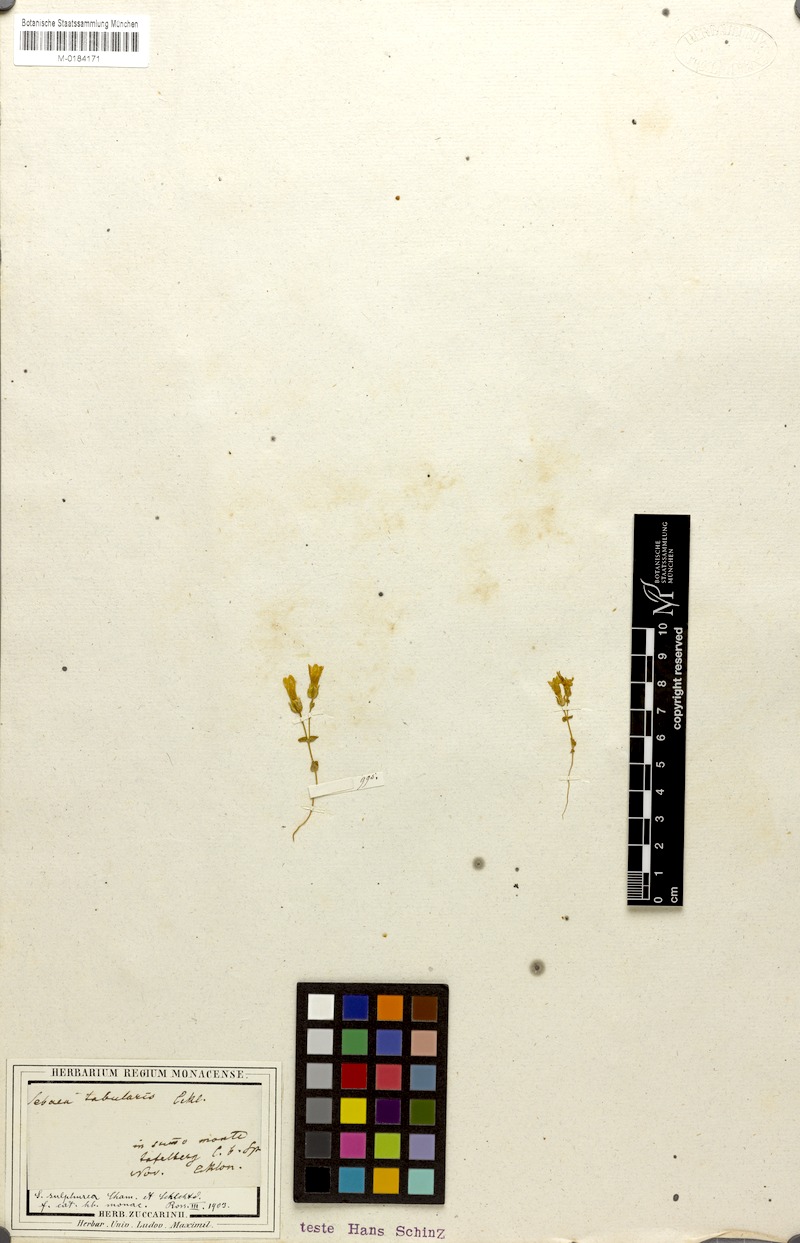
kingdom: Plantae
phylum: Tracheophyta
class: Magnoliopsida
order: Gentianales
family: Gentianaceae
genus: Sebaea
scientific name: Sebaea sulphurea
